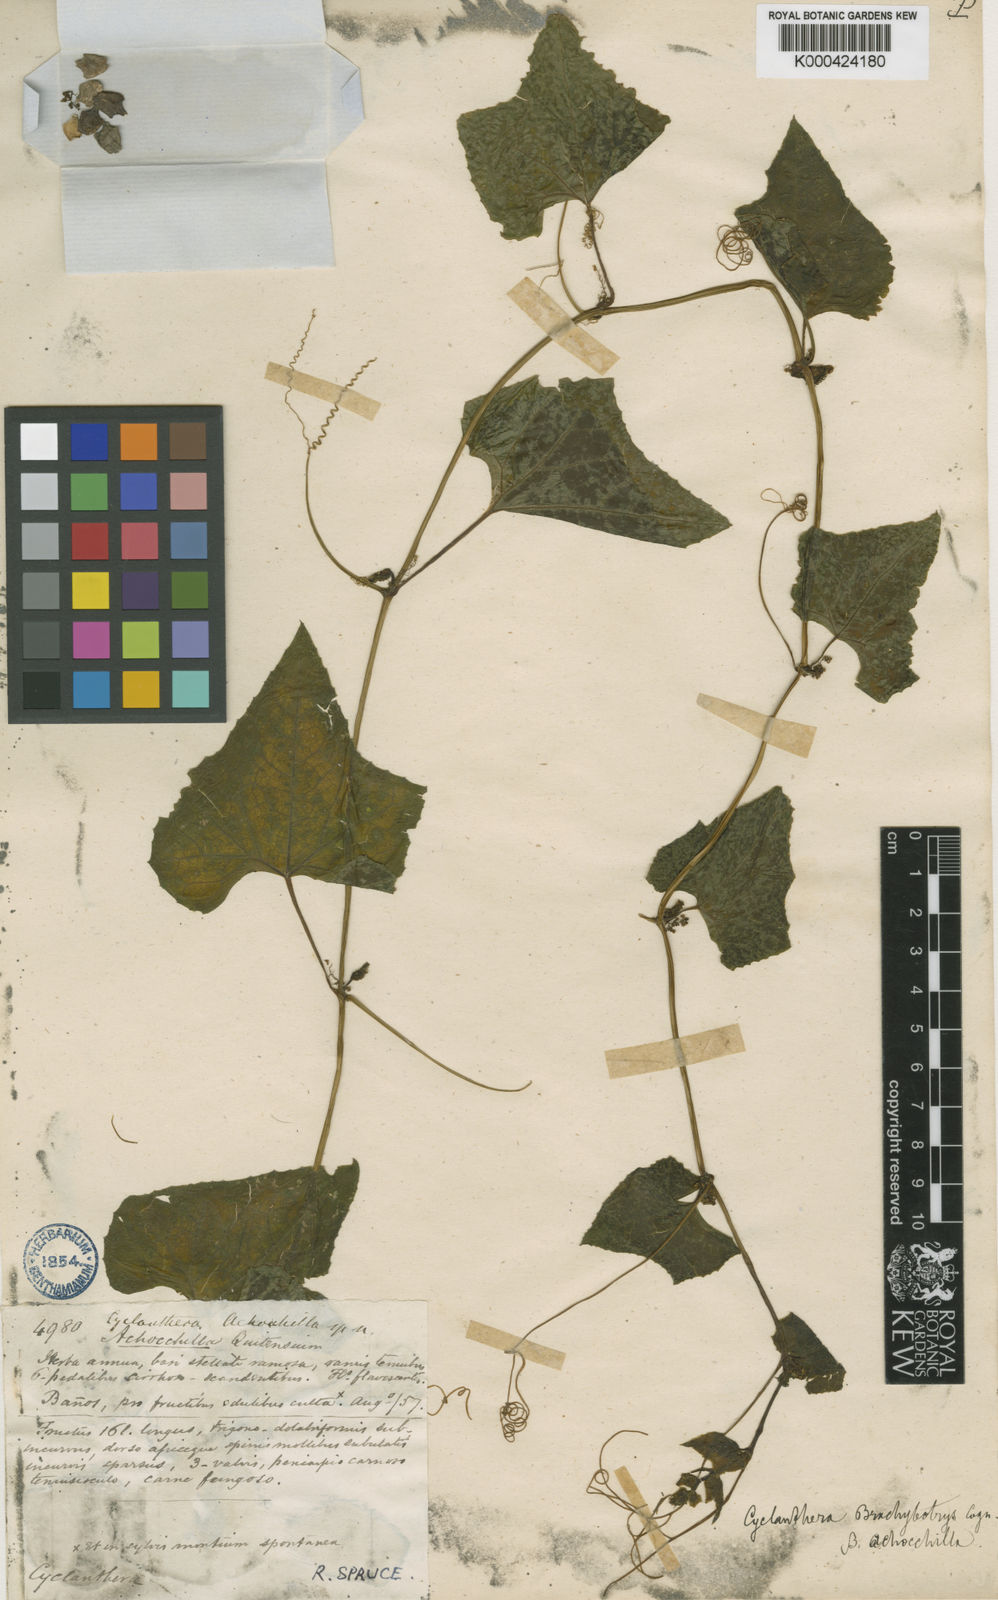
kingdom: Plantae
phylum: Tracheophyta
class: Magnoliopsida
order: Cucurbitales
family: Cucurbitaceae
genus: Cyclanthera
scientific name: Cyclanthera brachybotrys
